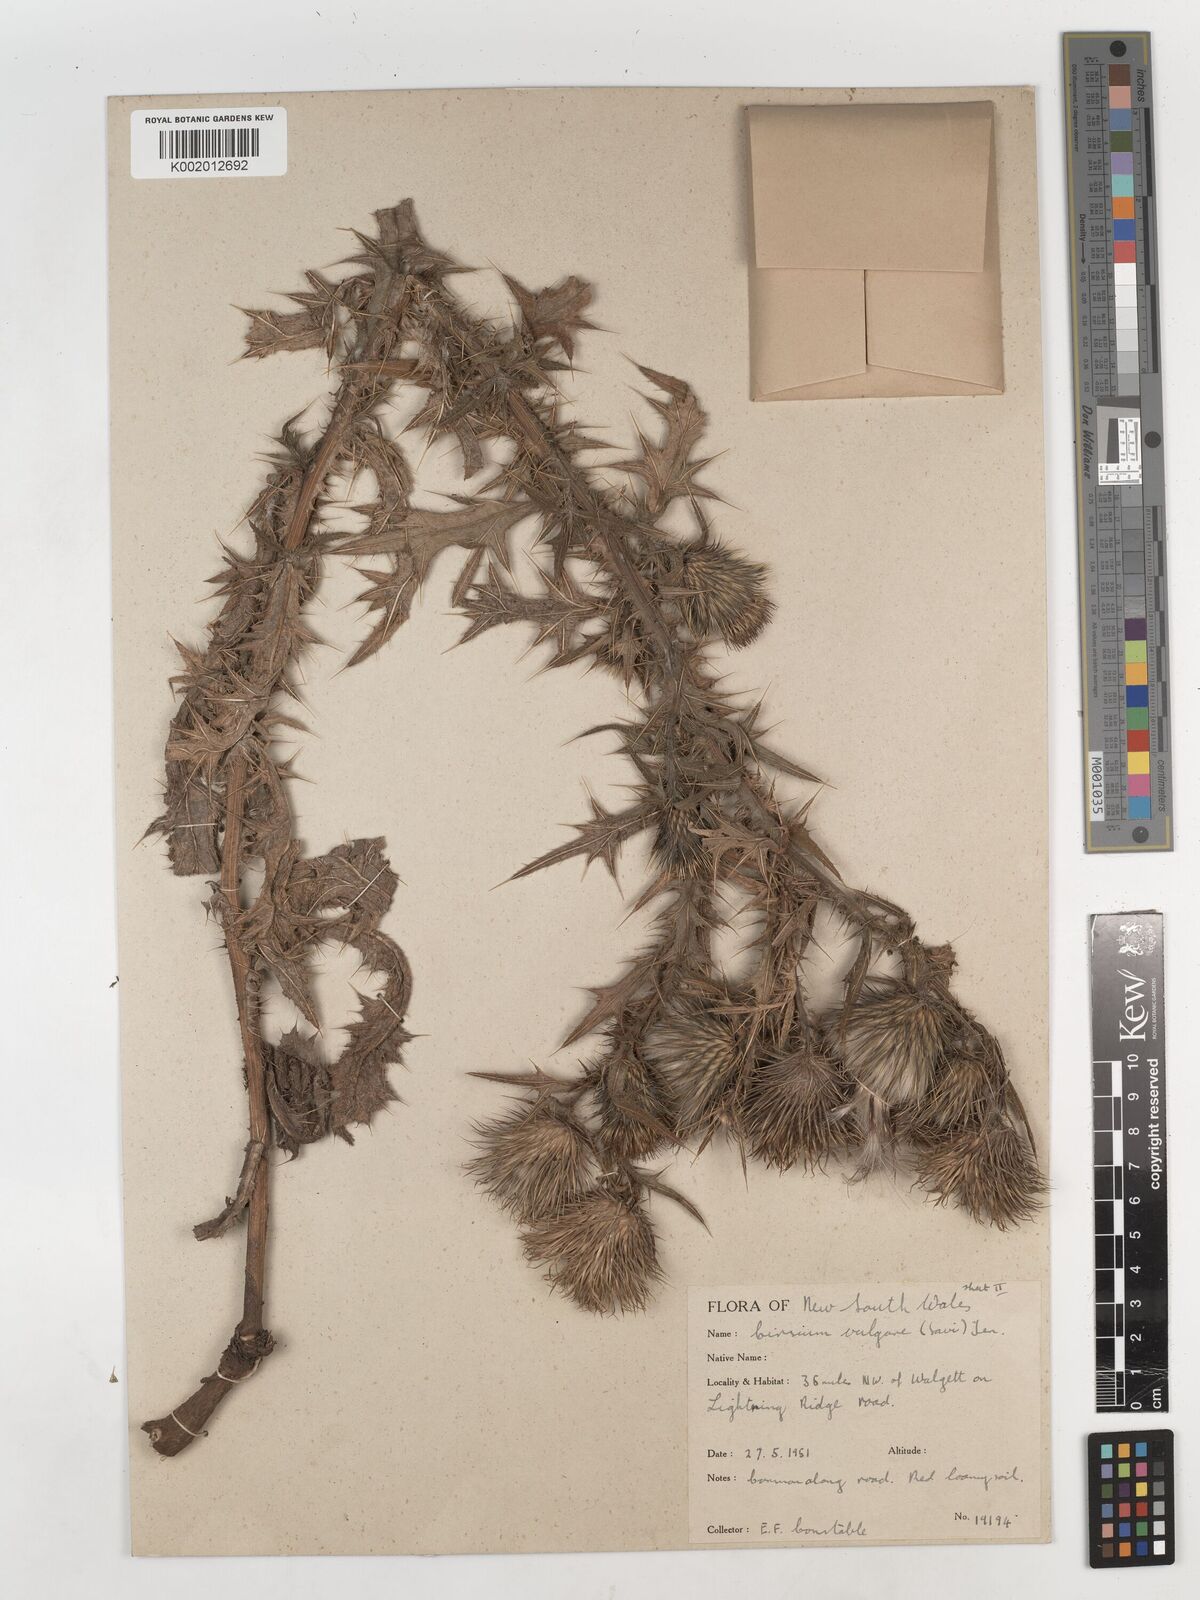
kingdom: Plantae
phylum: Tracheophyta
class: Magnoliopsida
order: Asterales
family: Asteraceae
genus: Cirsium
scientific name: Cirsium vulgare
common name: Bull thistle
